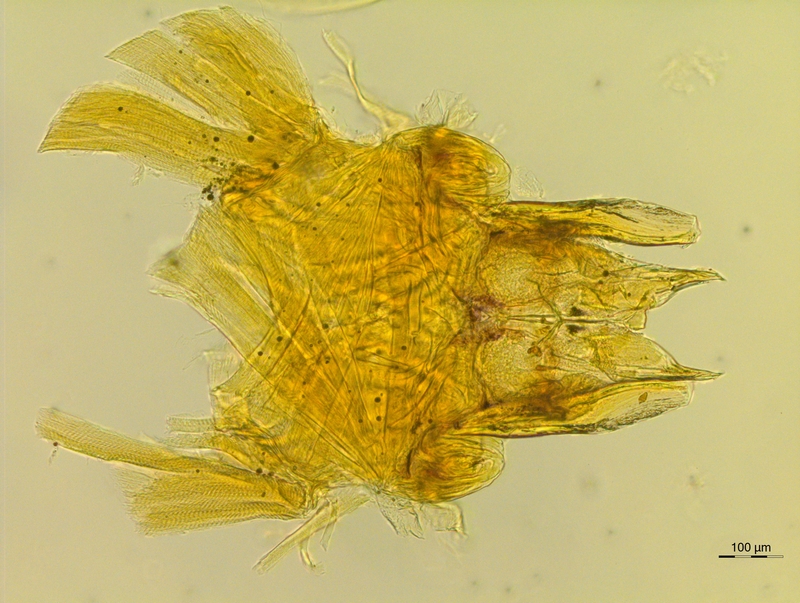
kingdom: Animalia
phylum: Arthropoda
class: Diplopoda
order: Chordeumatida
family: Anthroleucosomatidae
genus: Anamastigona
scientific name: Anamastigona hispidula
